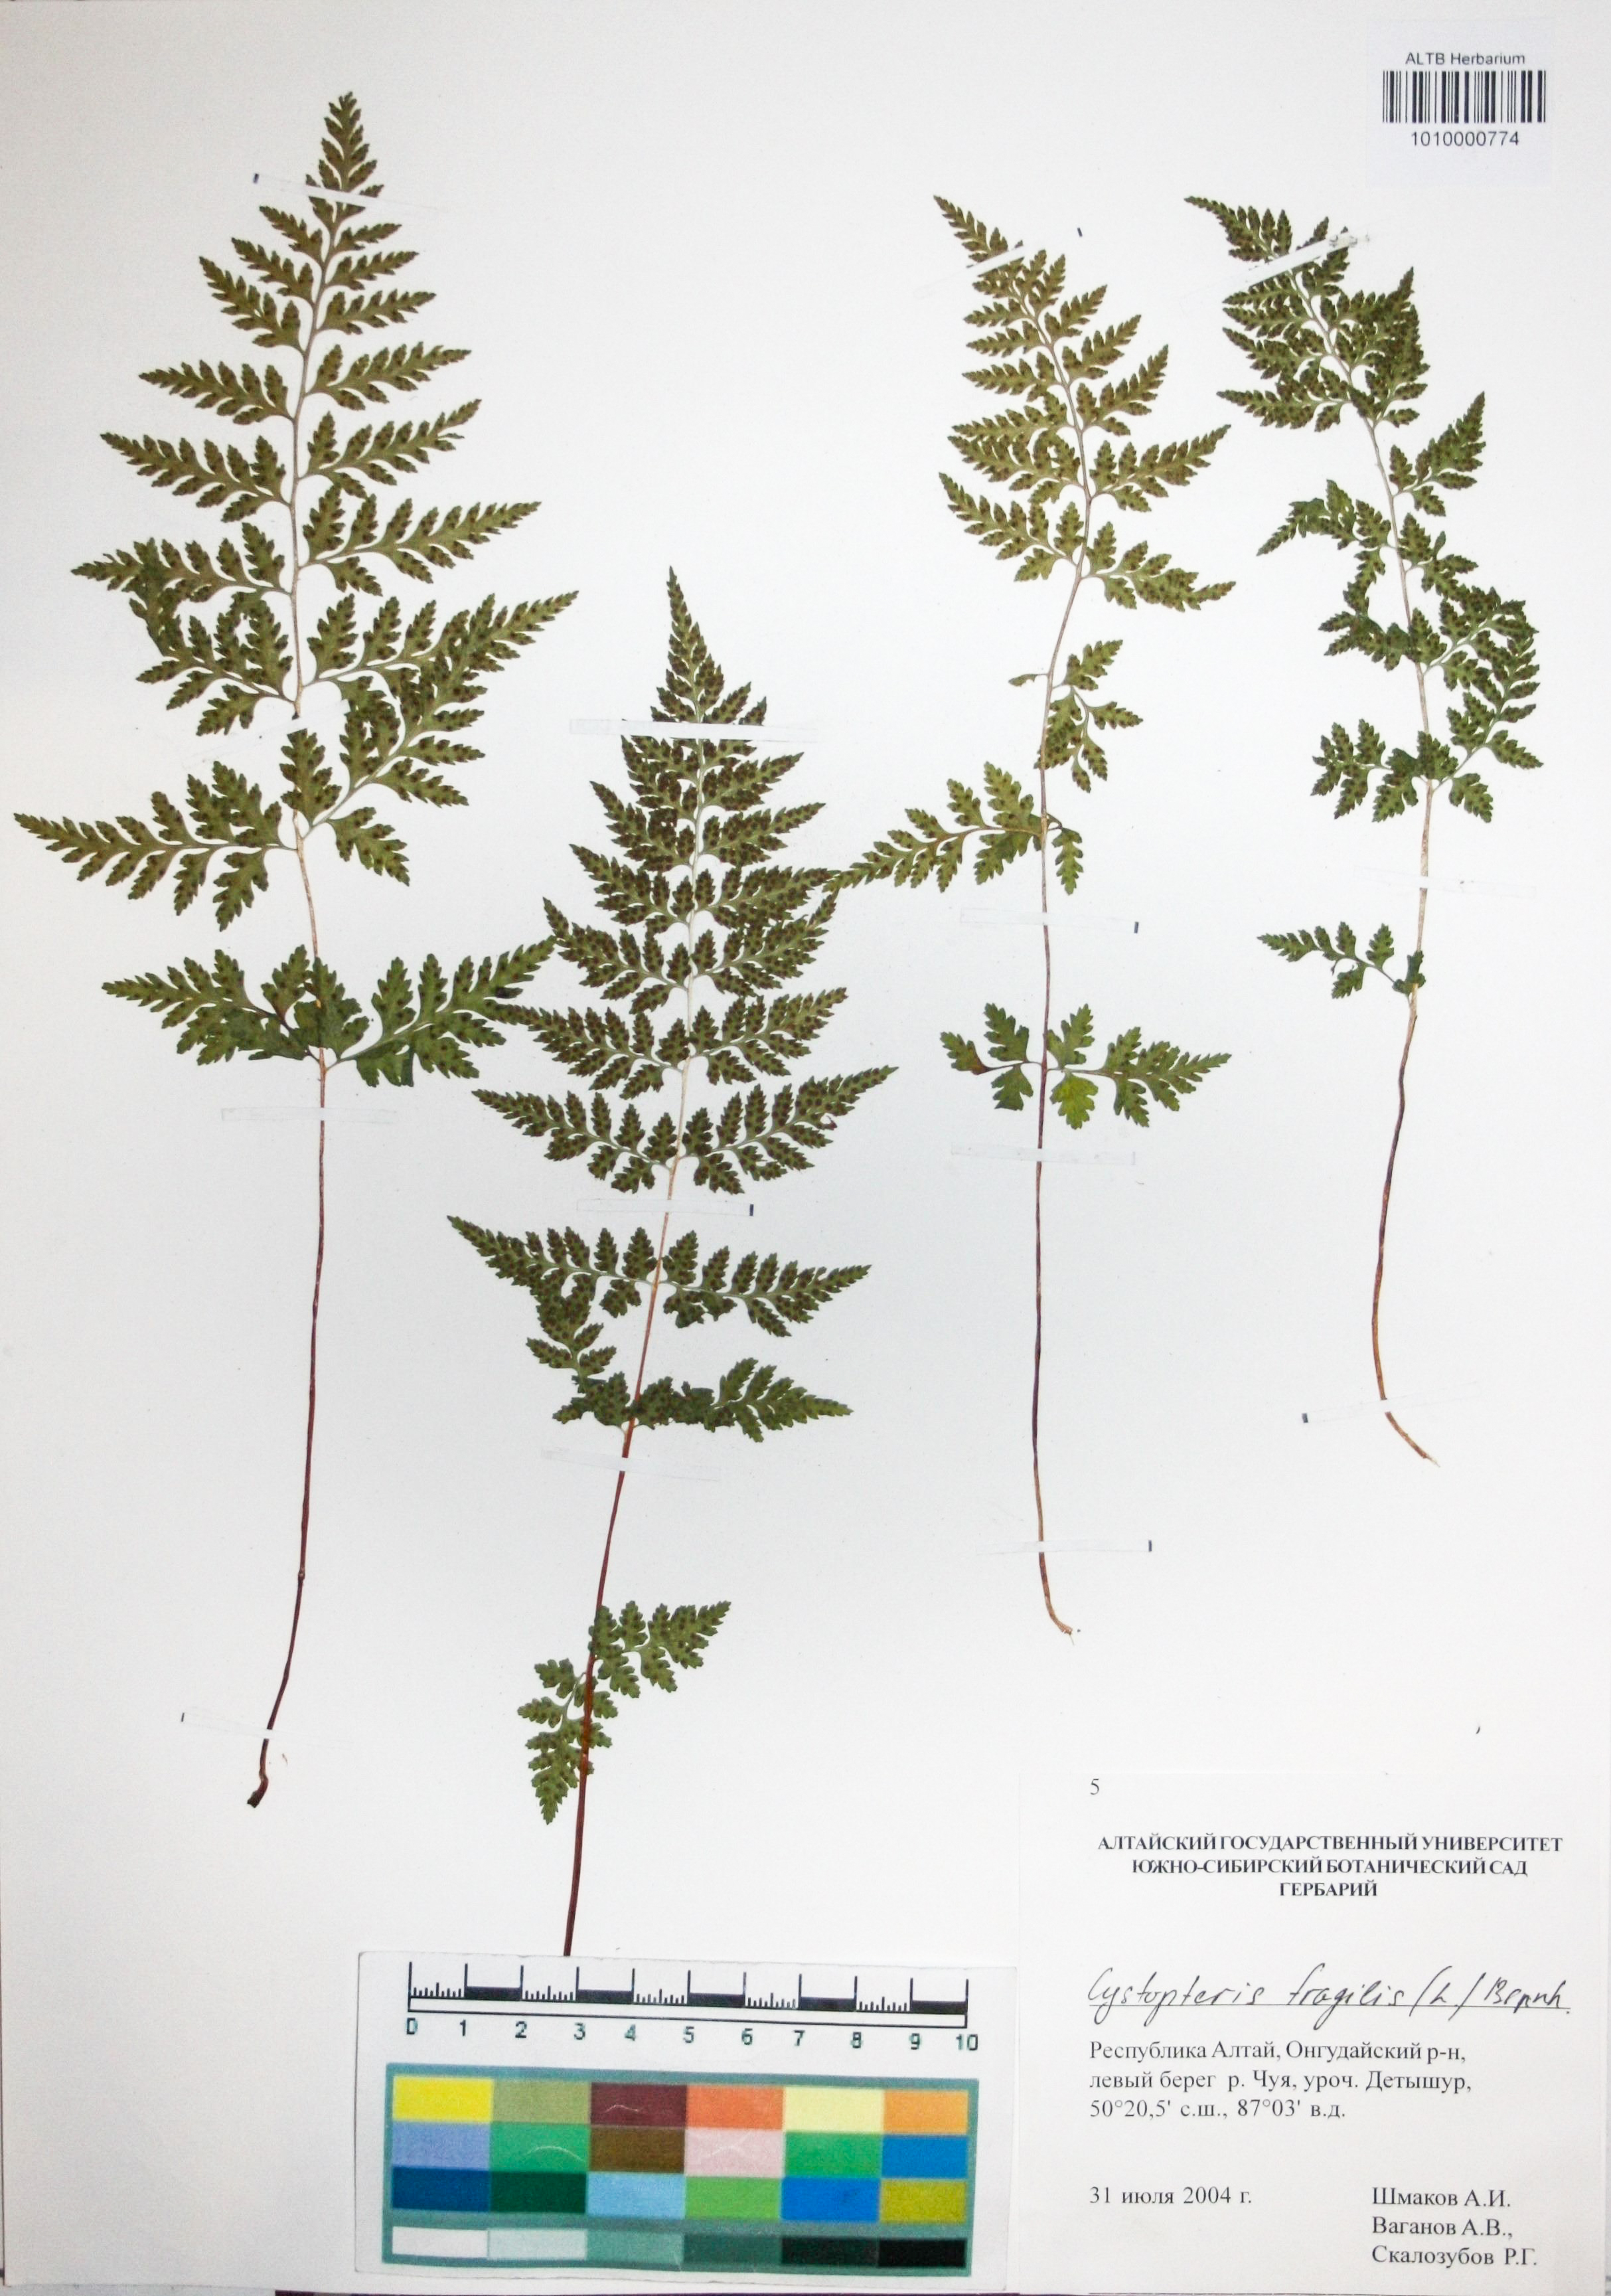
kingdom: Plantae
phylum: Tracheophyta
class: Polypodiopsida
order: Polypodiales
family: Cystopteridaceae
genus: Cystopteris
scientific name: Cystopteris fragilis
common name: Brittle bladder fern
